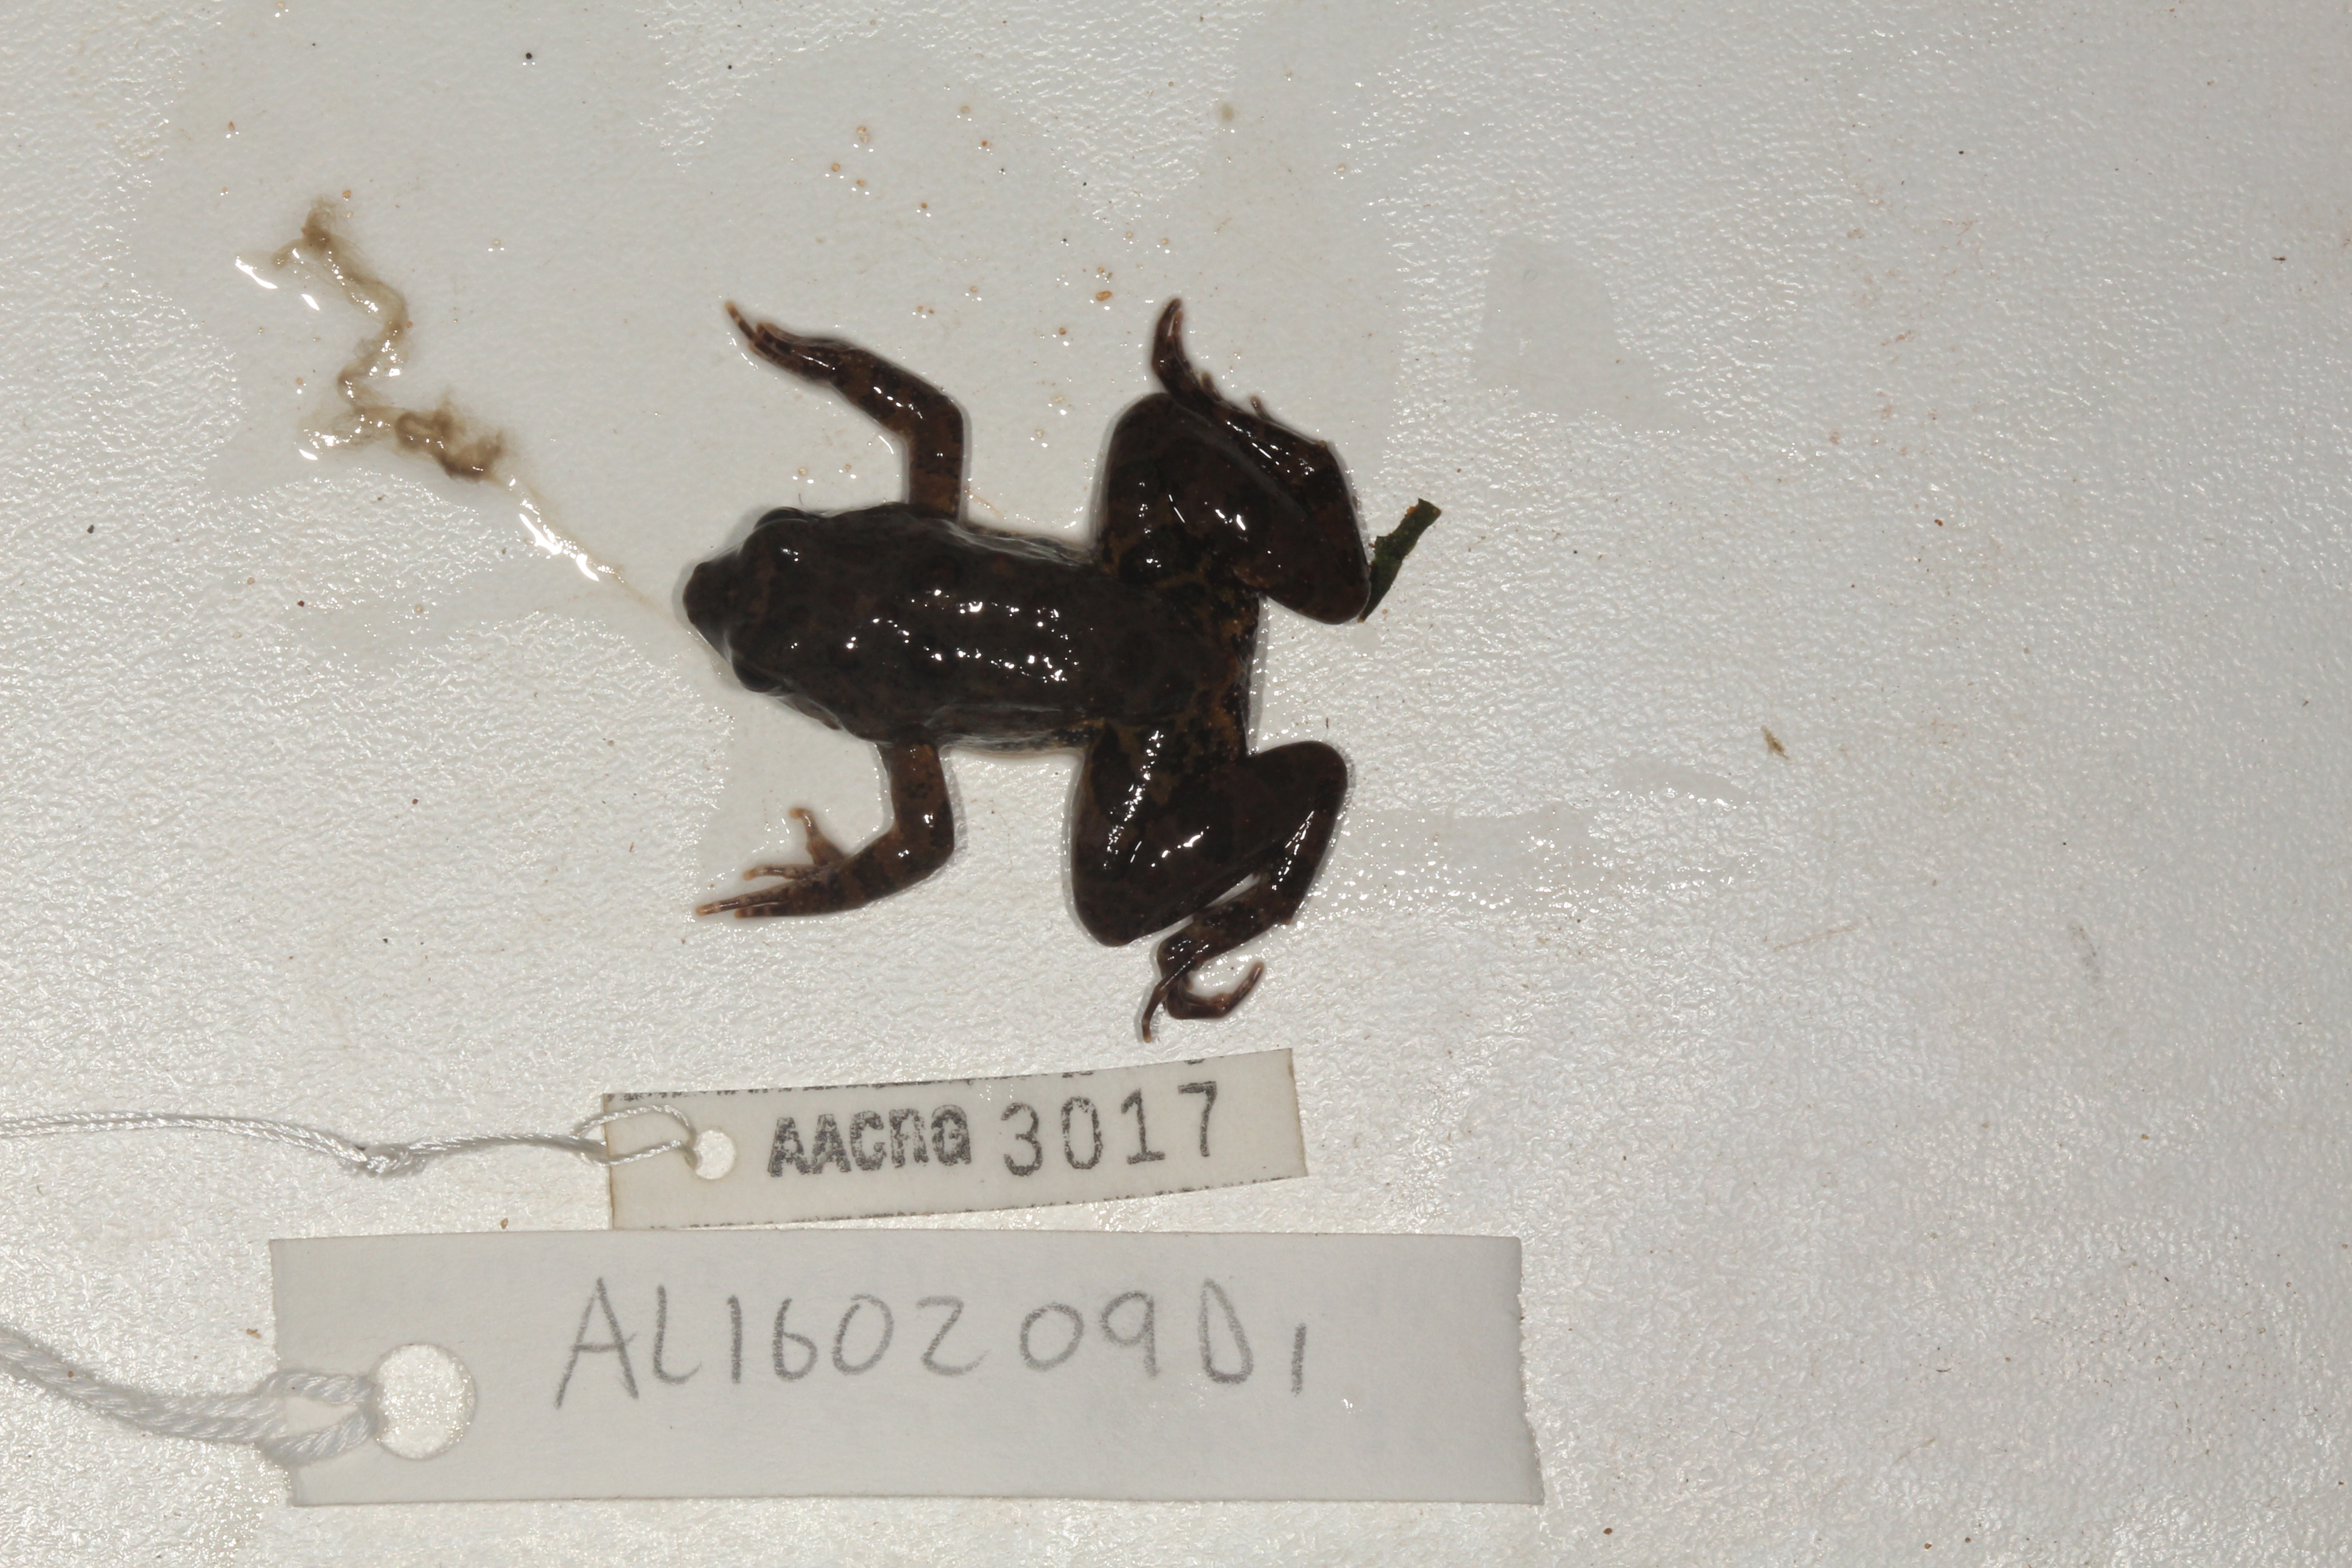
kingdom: Animalia
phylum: Chordata
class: Amphibia
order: Anura
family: Phrynobatrachidae
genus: Phrynobatrachus
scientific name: Phrynobatrachus natalensis
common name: Snoring puddle frog
